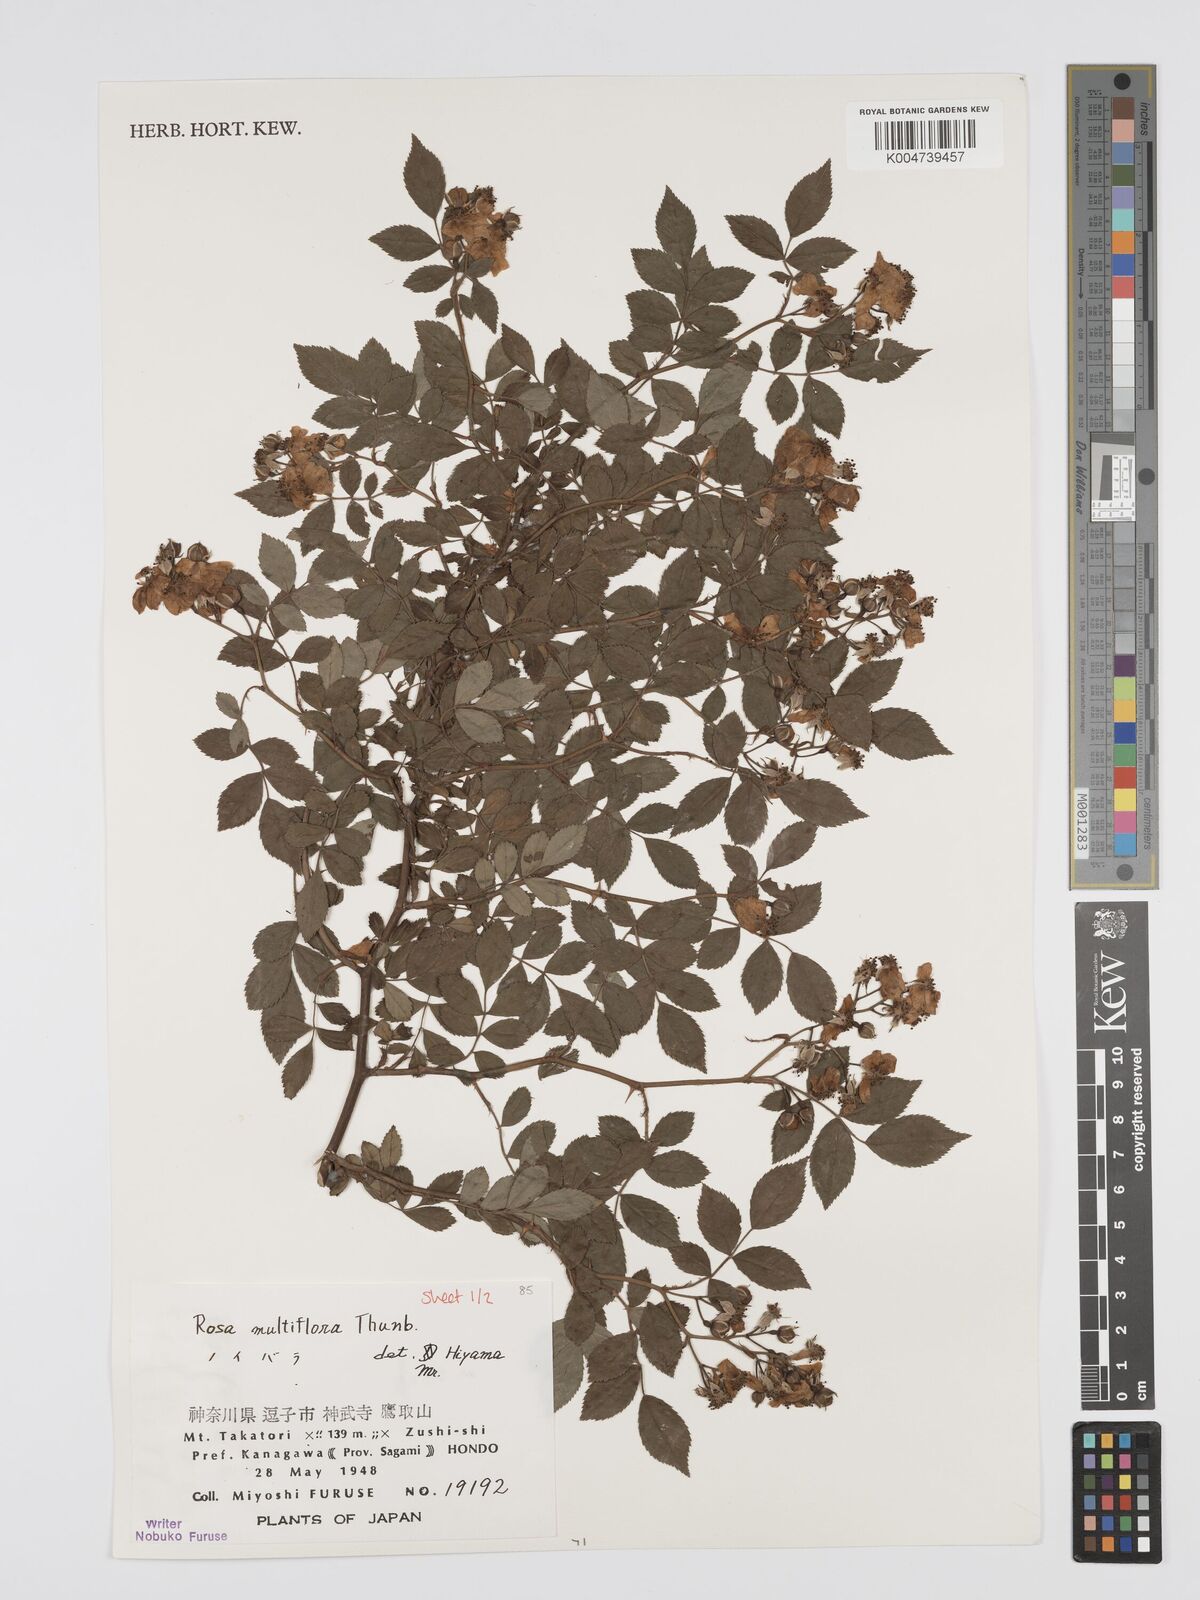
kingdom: Plantae
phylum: Tracheophyta
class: Magnoliopsida
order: Rosales
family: Rosaceae
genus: Rosa
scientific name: Rosa
